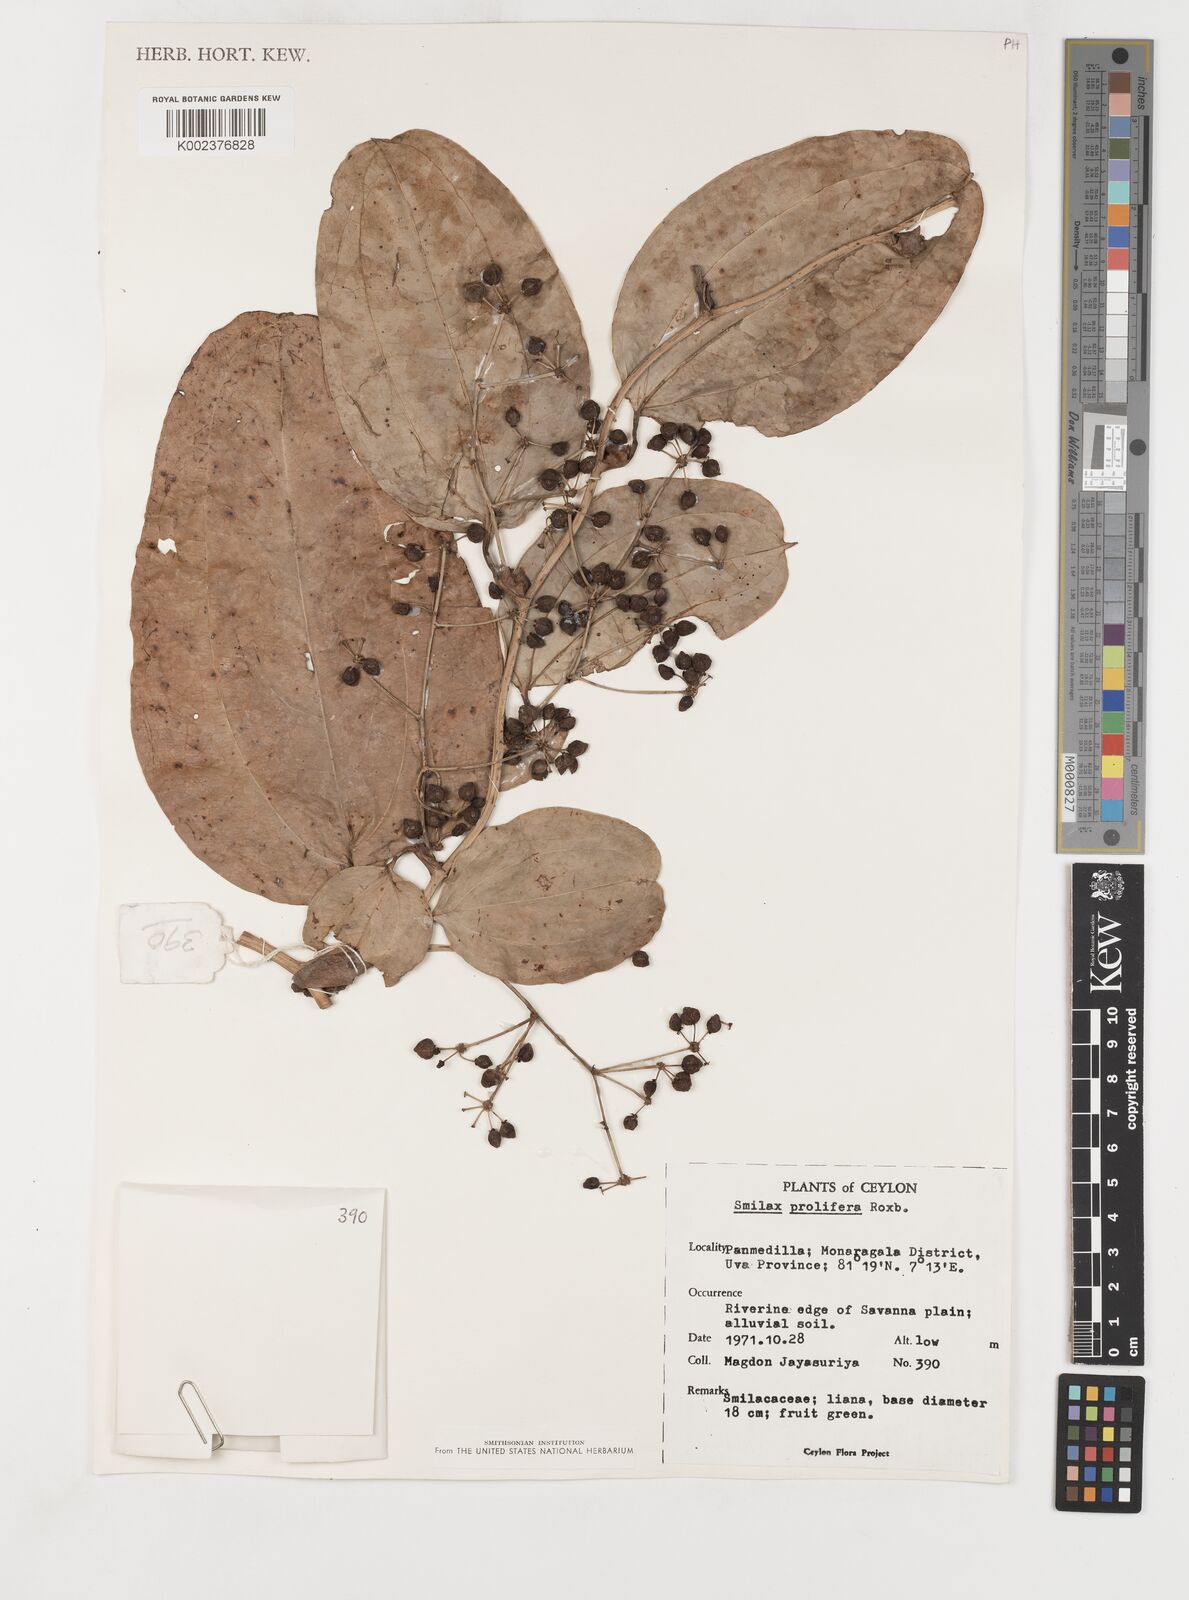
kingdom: Plantae
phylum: Tracheophyta
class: Liliopsida
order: Liliales
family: Smilacaceae
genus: Smilax
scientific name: Smilax prolifera
